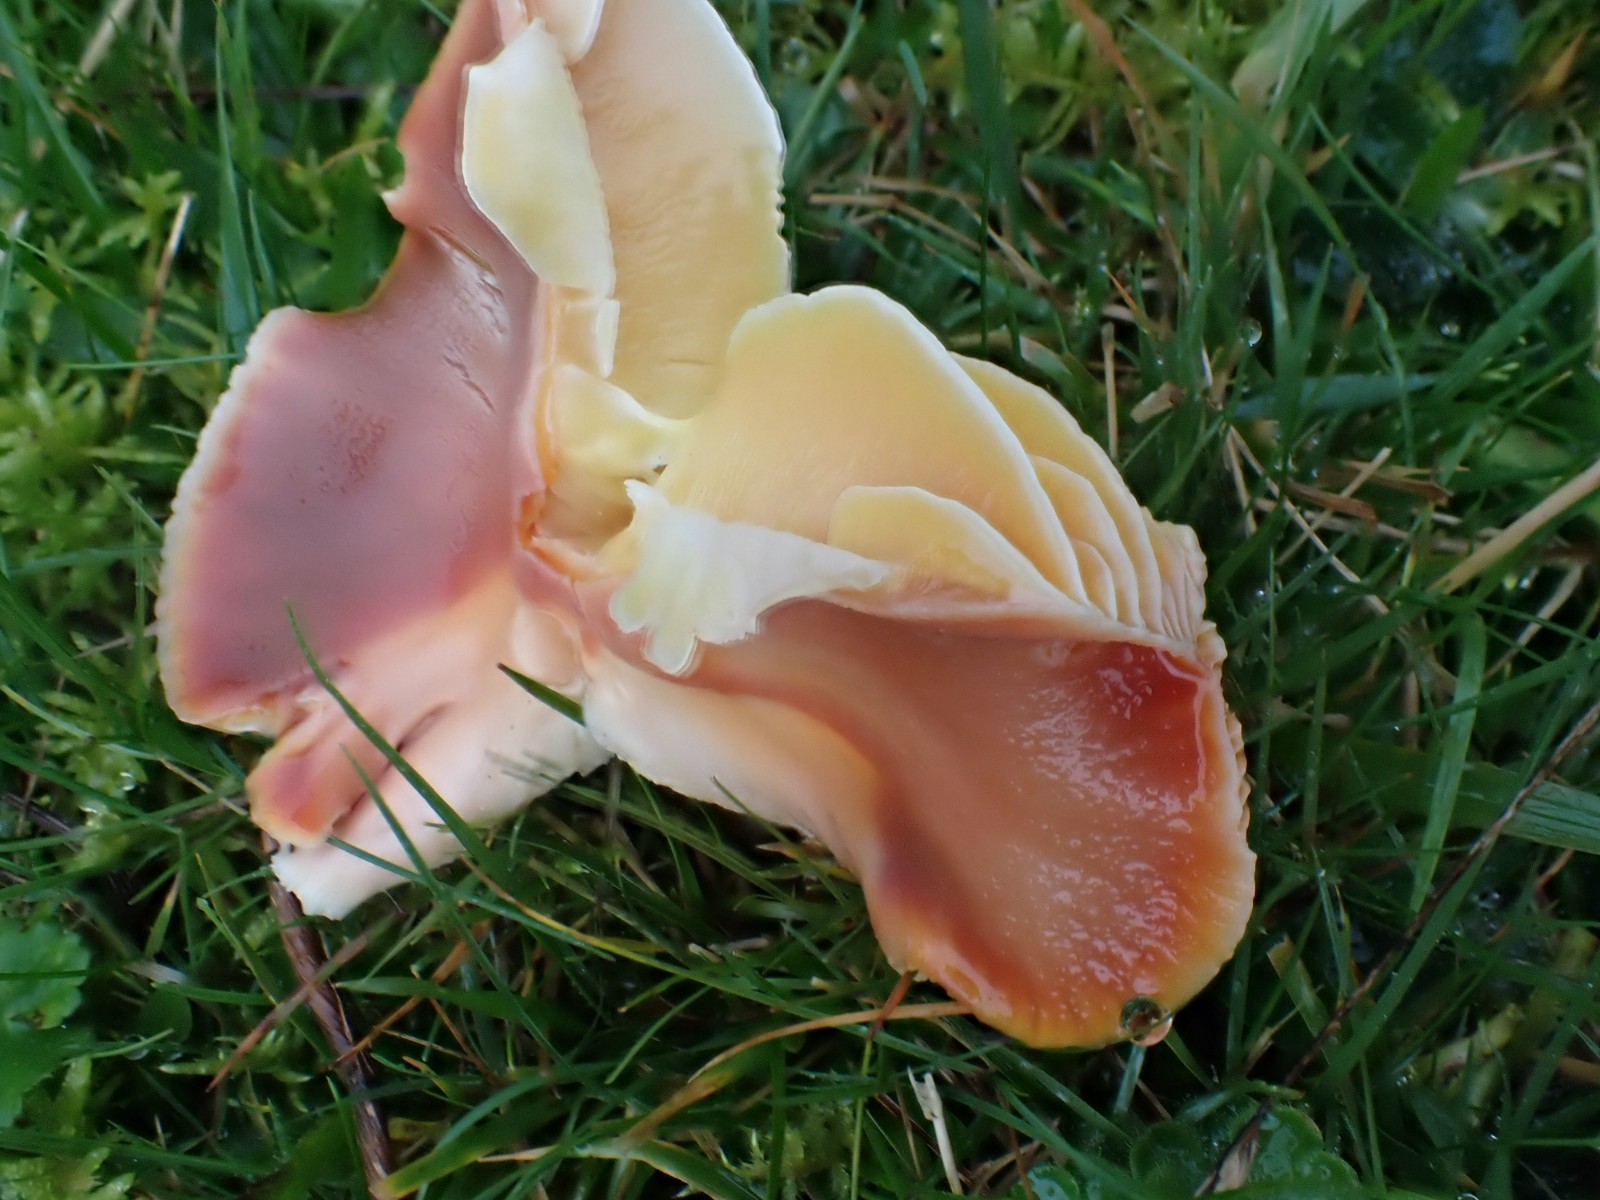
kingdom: Fungi
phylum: Basidiomycota
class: Agaricomycetes
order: Agaricales
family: Hygrophoraceae
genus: Hygrocybe
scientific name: Hygrocybe punicea
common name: skarlagen-vokshat
